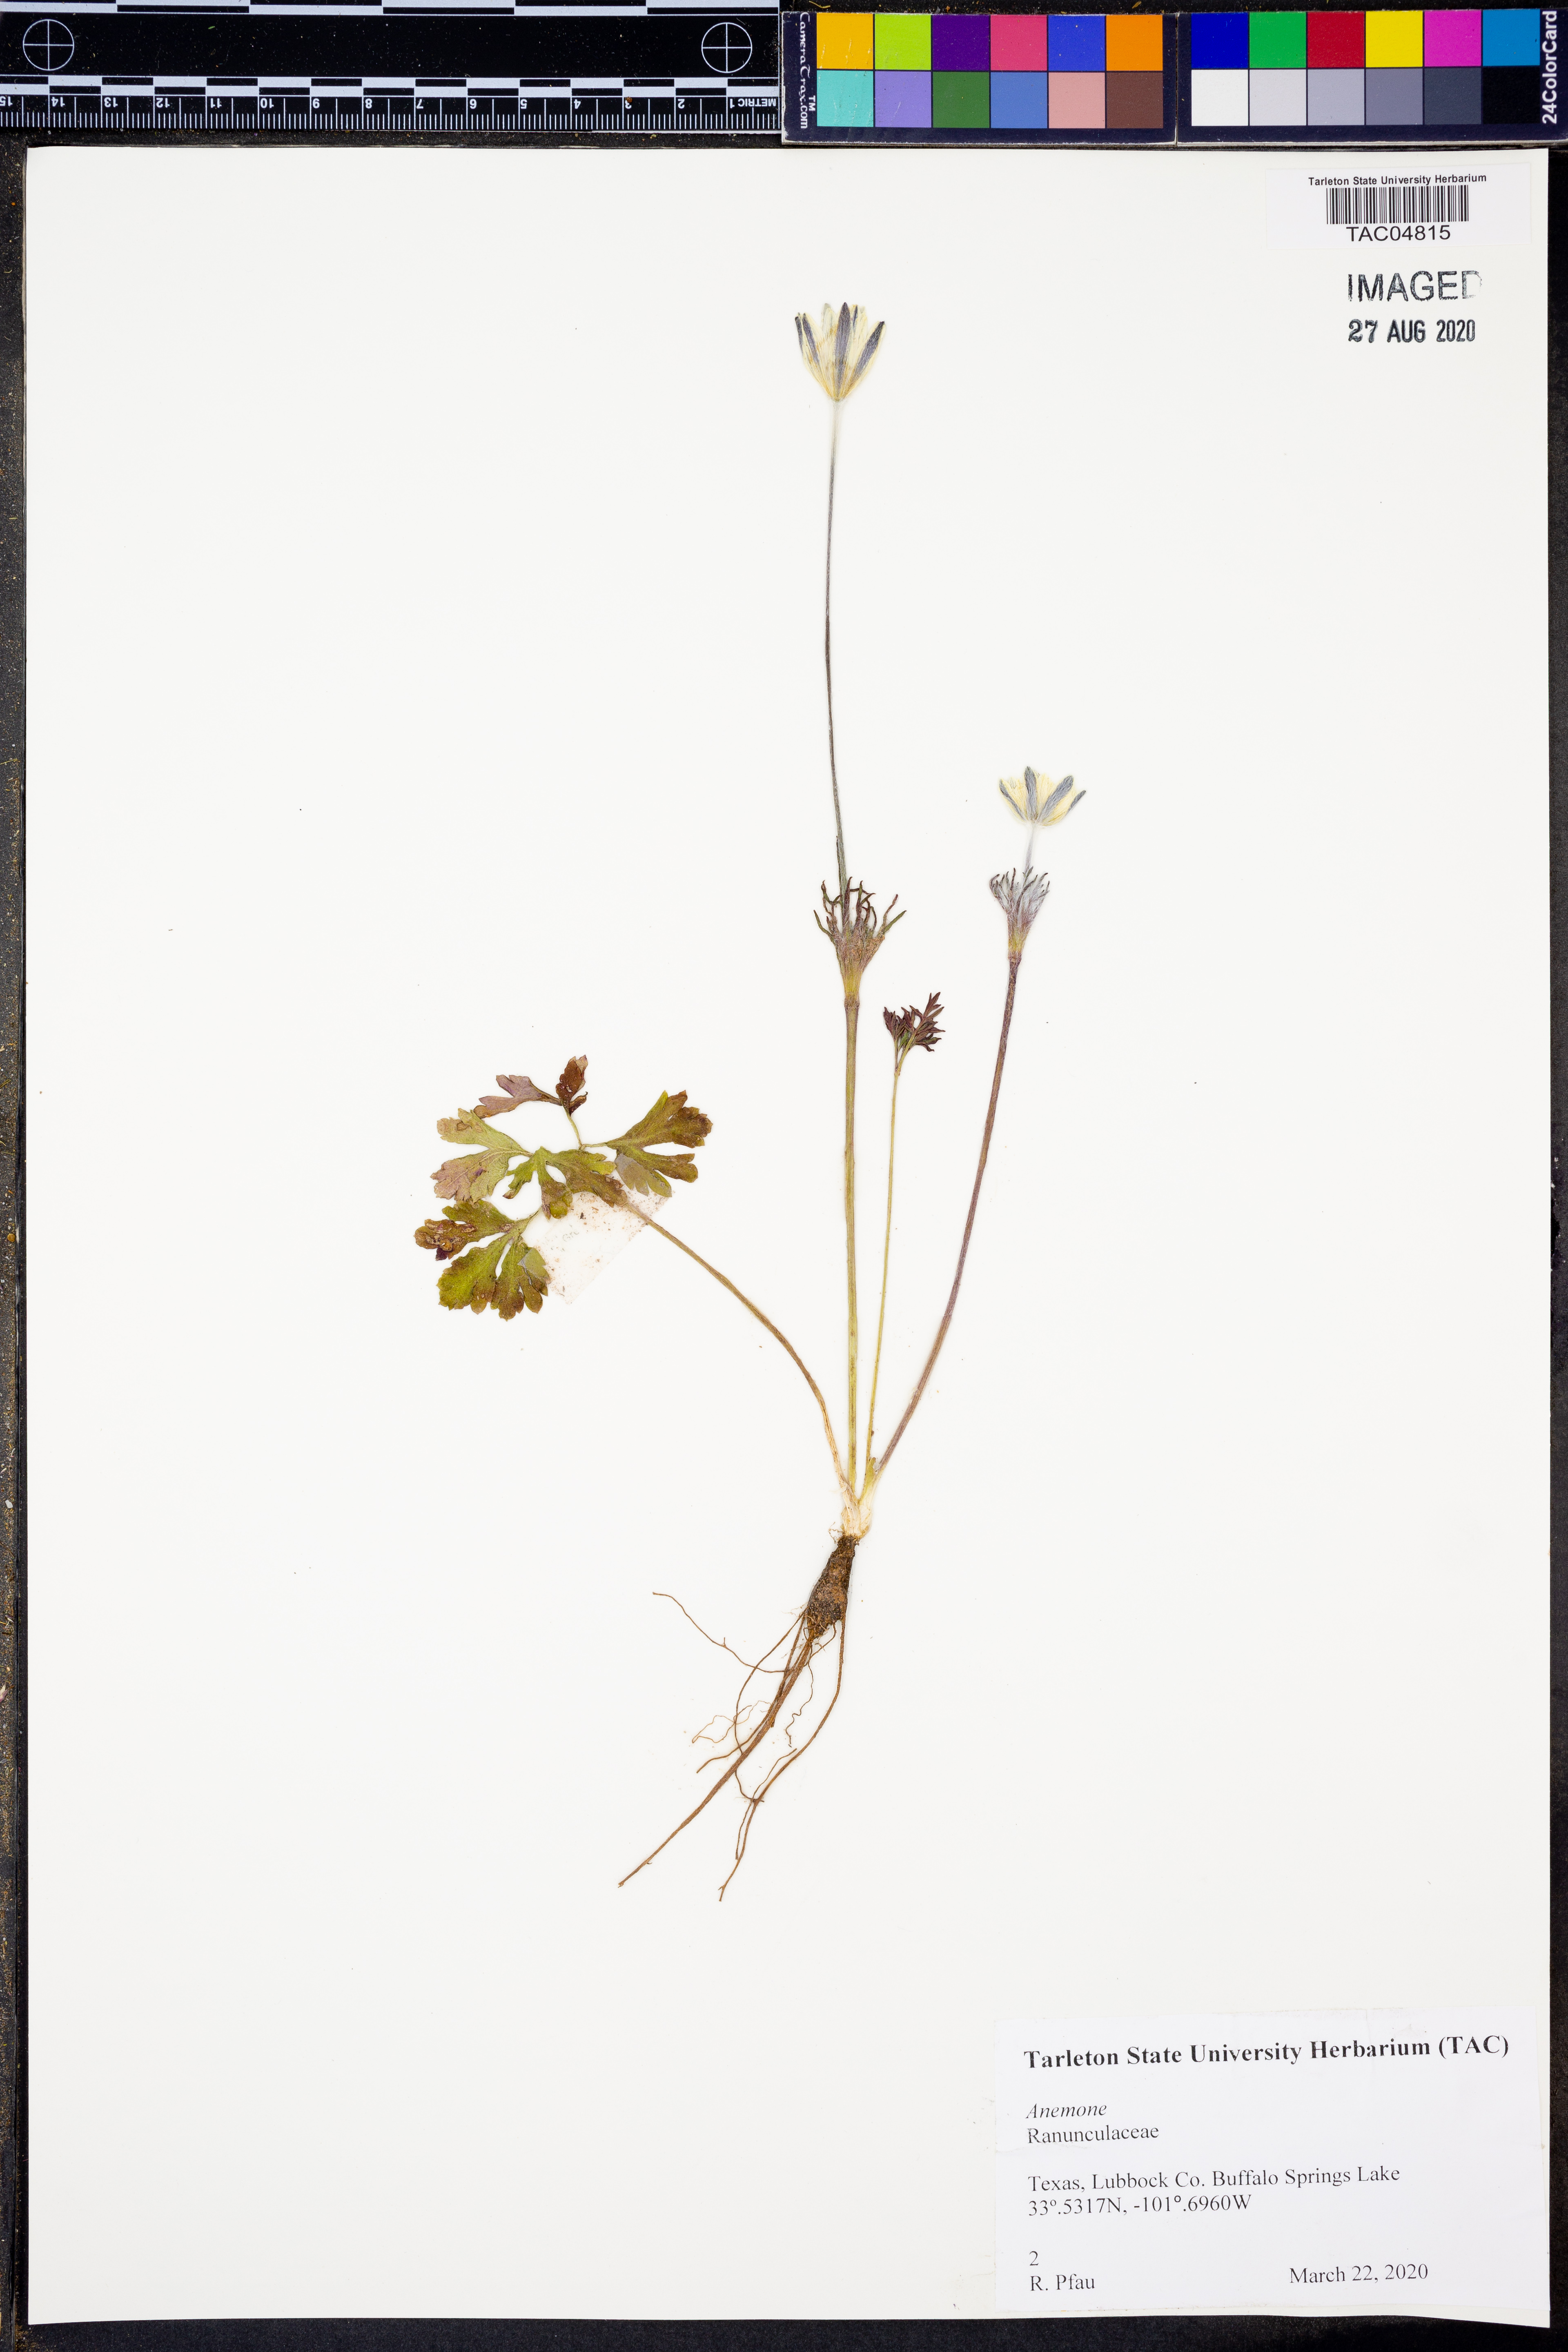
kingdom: Plantae
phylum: Tracheophyta
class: Magnoliopsida
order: Ranunculales
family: Ranunculaceae
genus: Anemone
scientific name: Anemone
